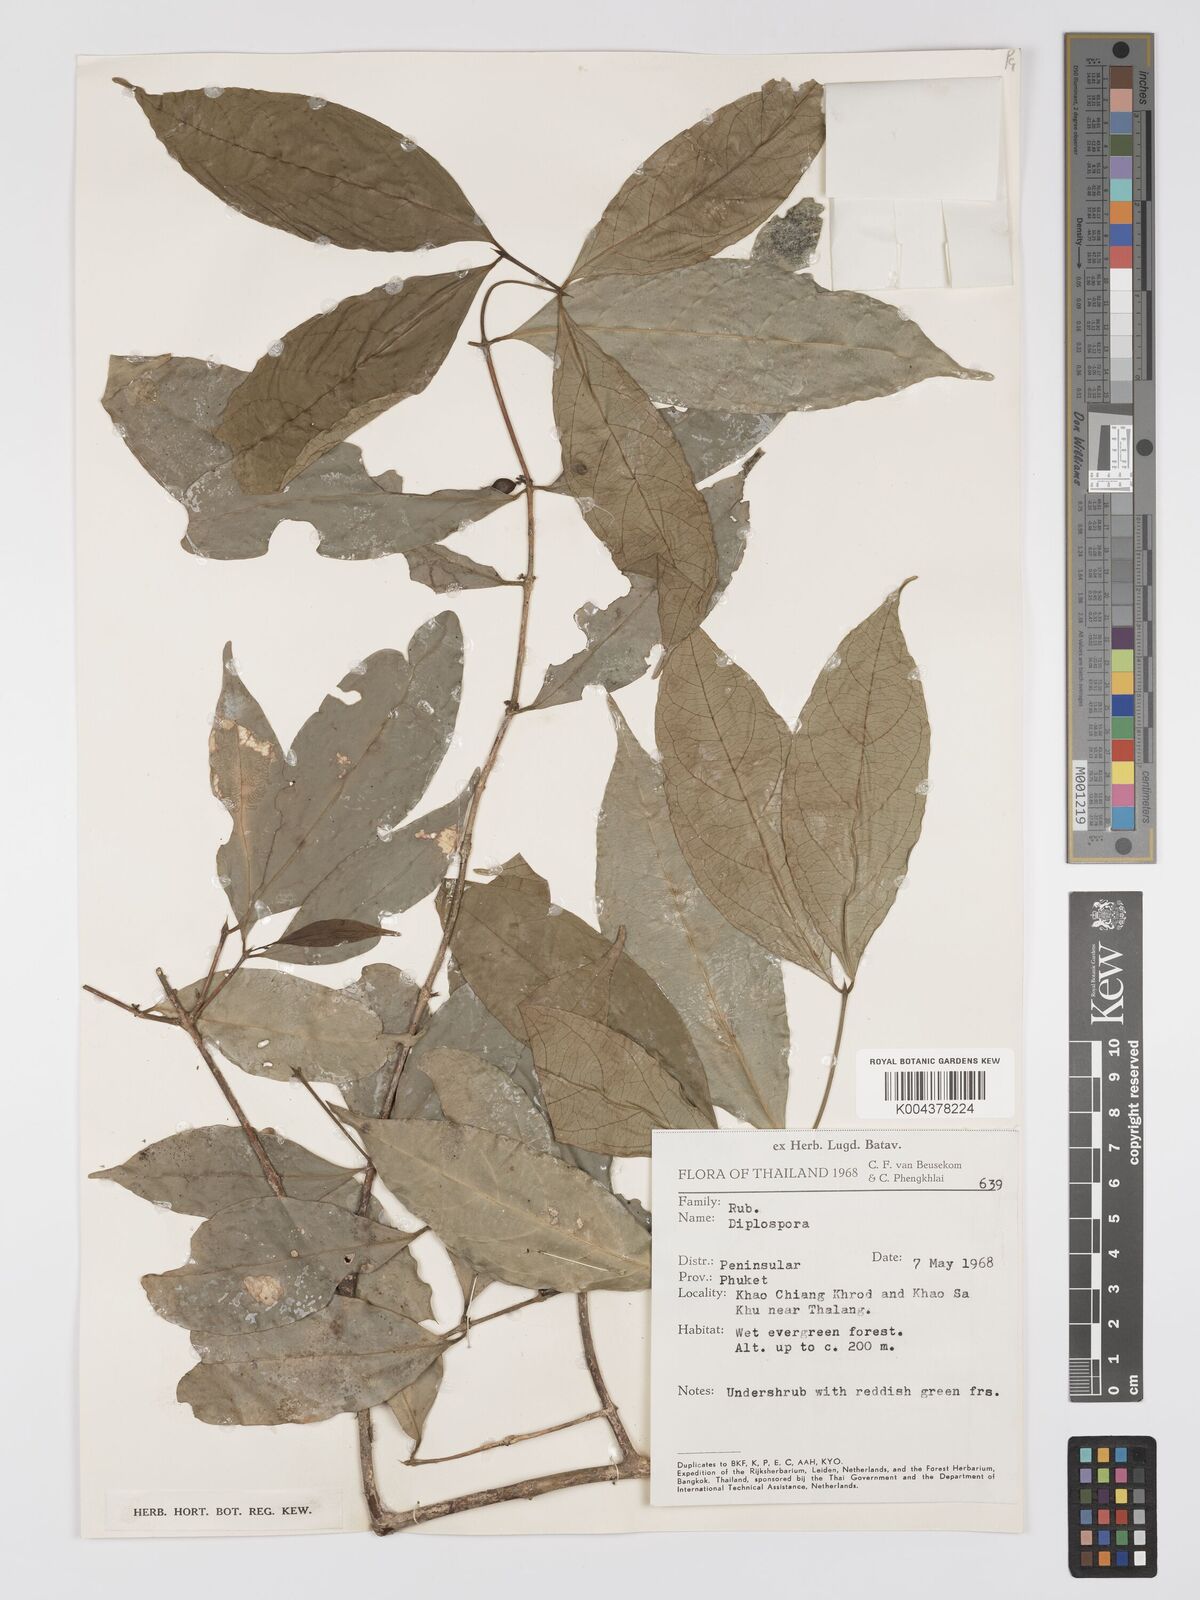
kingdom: Plantae
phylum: Tracheophyta
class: Magnoliopsida
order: Gentianales
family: Rubiaceae
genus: Diplospora
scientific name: Diplospora
